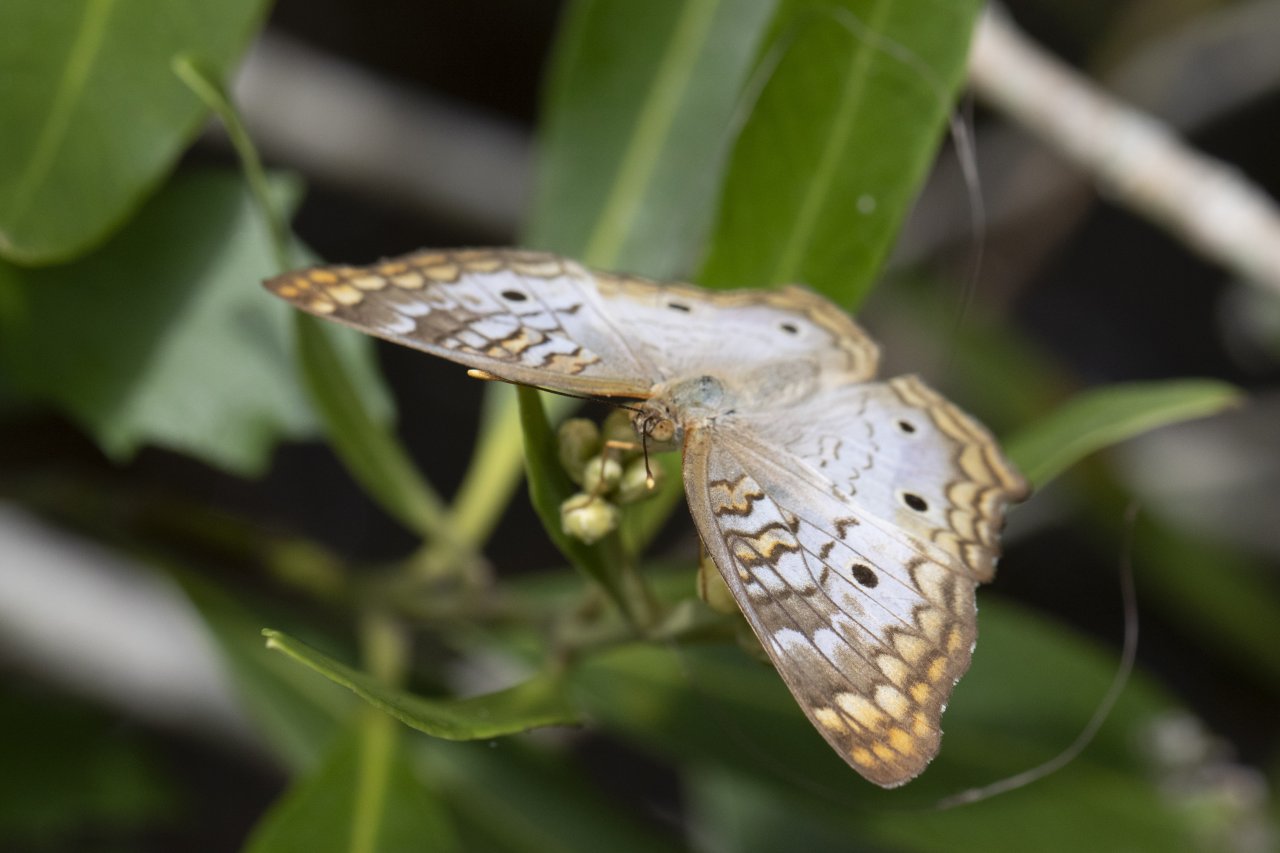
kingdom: Animalia
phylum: Arthropoda
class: Insecta
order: Lepidoptera
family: Nymphalidae
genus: Anartia
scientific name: Anartia jatrophae
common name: White Peacock
